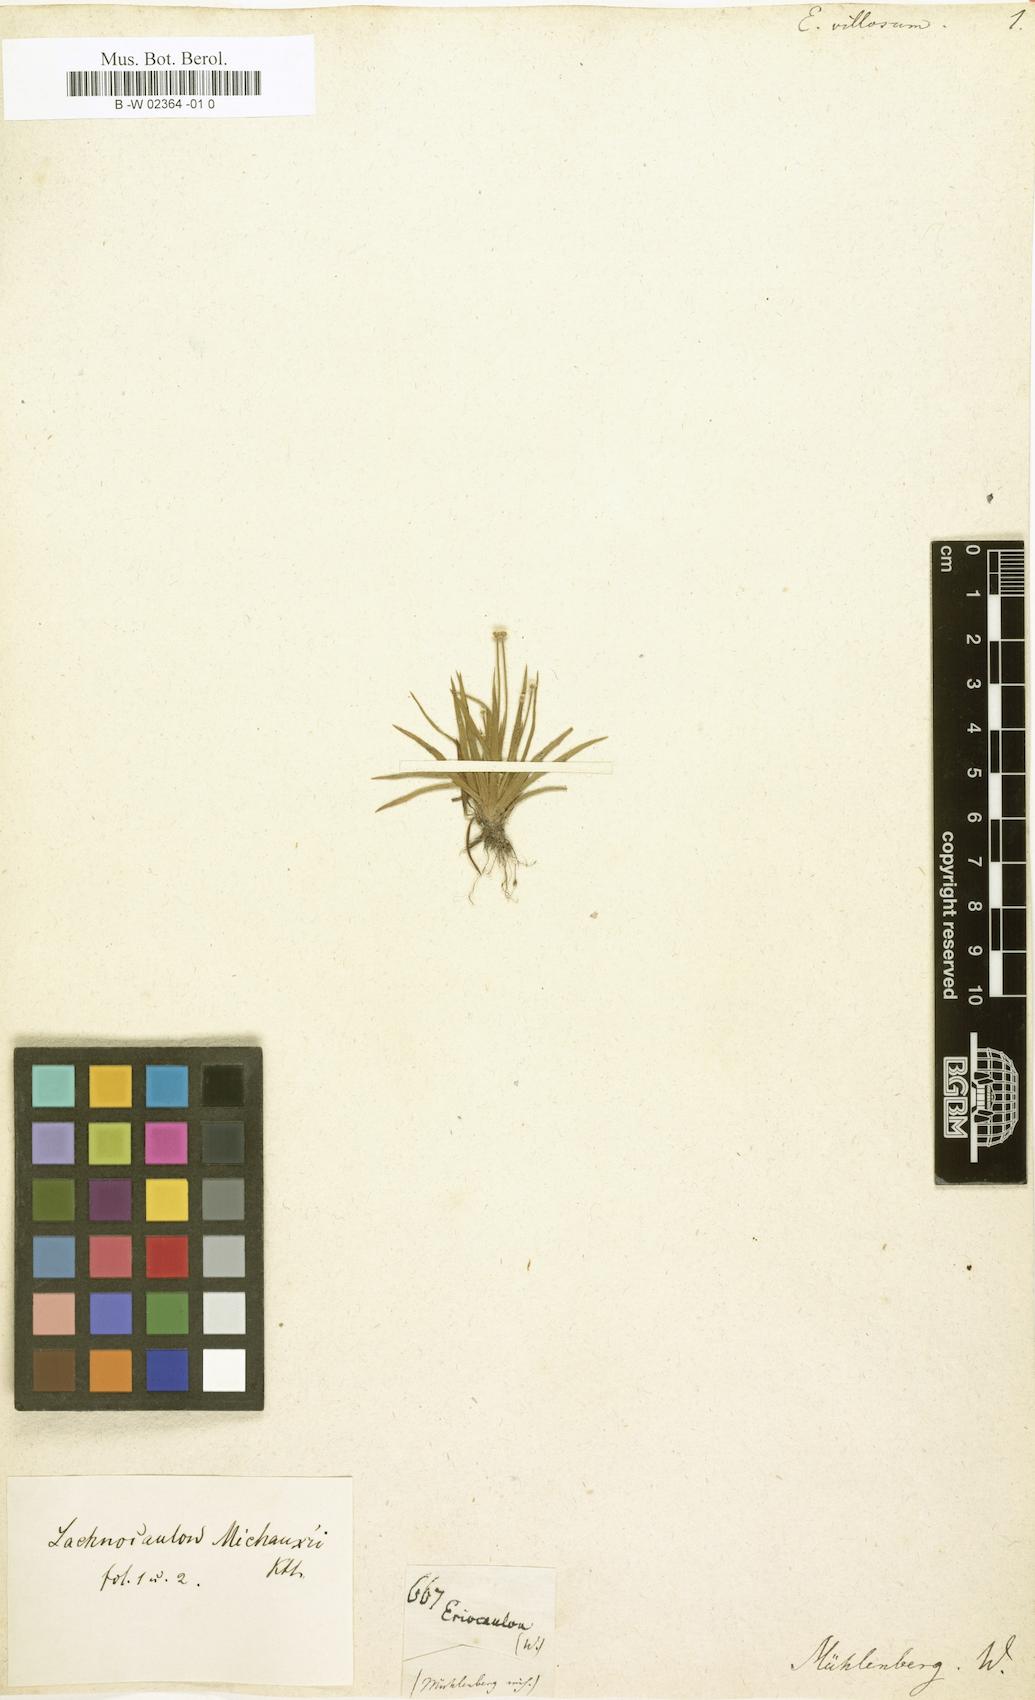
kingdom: Plantae
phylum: Tracheophyta
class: Liliopsida
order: Poales
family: Eriocaulaceae
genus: Paepalanthus
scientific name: Paepalanthus anceps
